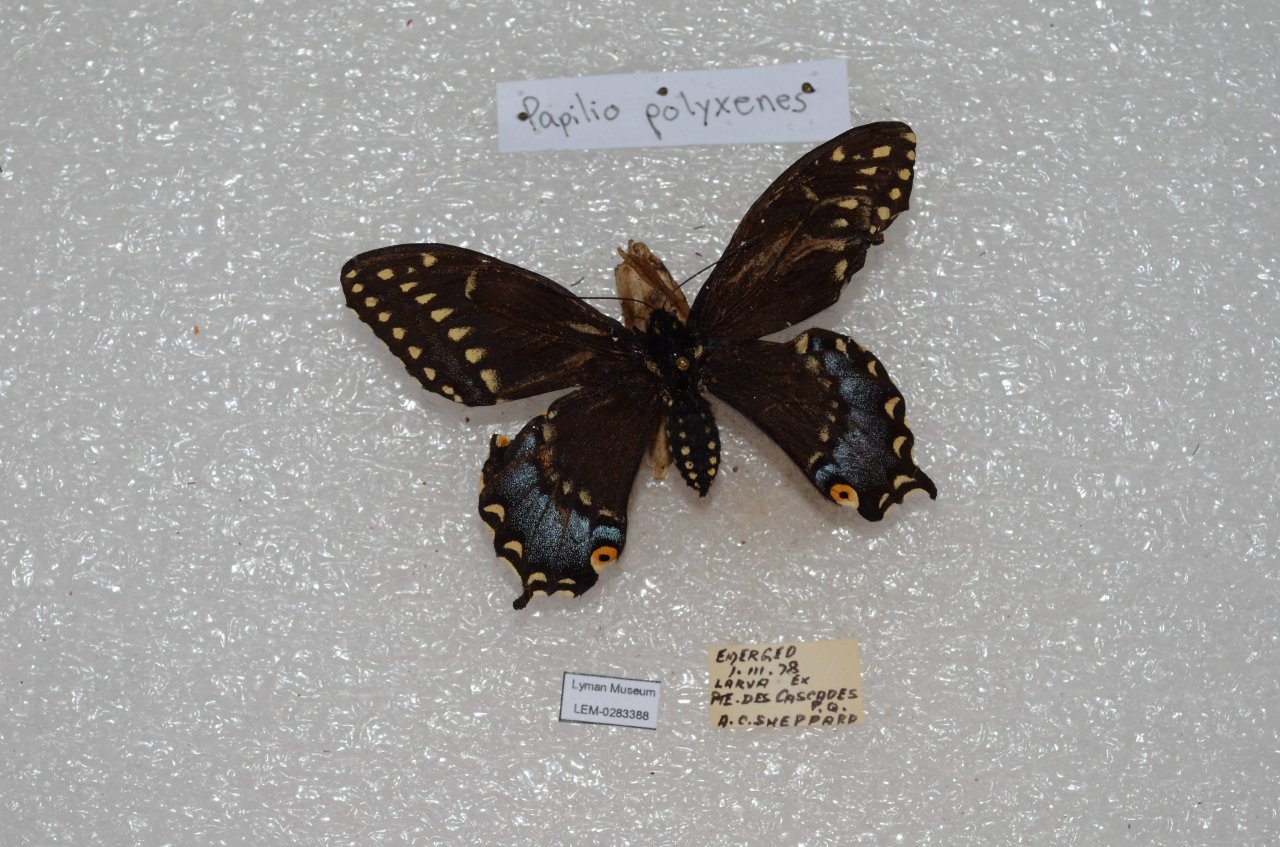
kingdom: Animalia
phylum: Arthropoda
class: Insecta
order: Lepidoptera
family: Papilionidae
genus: Papilio
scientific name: Papilio polyxenes
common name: Black Swallowtail
